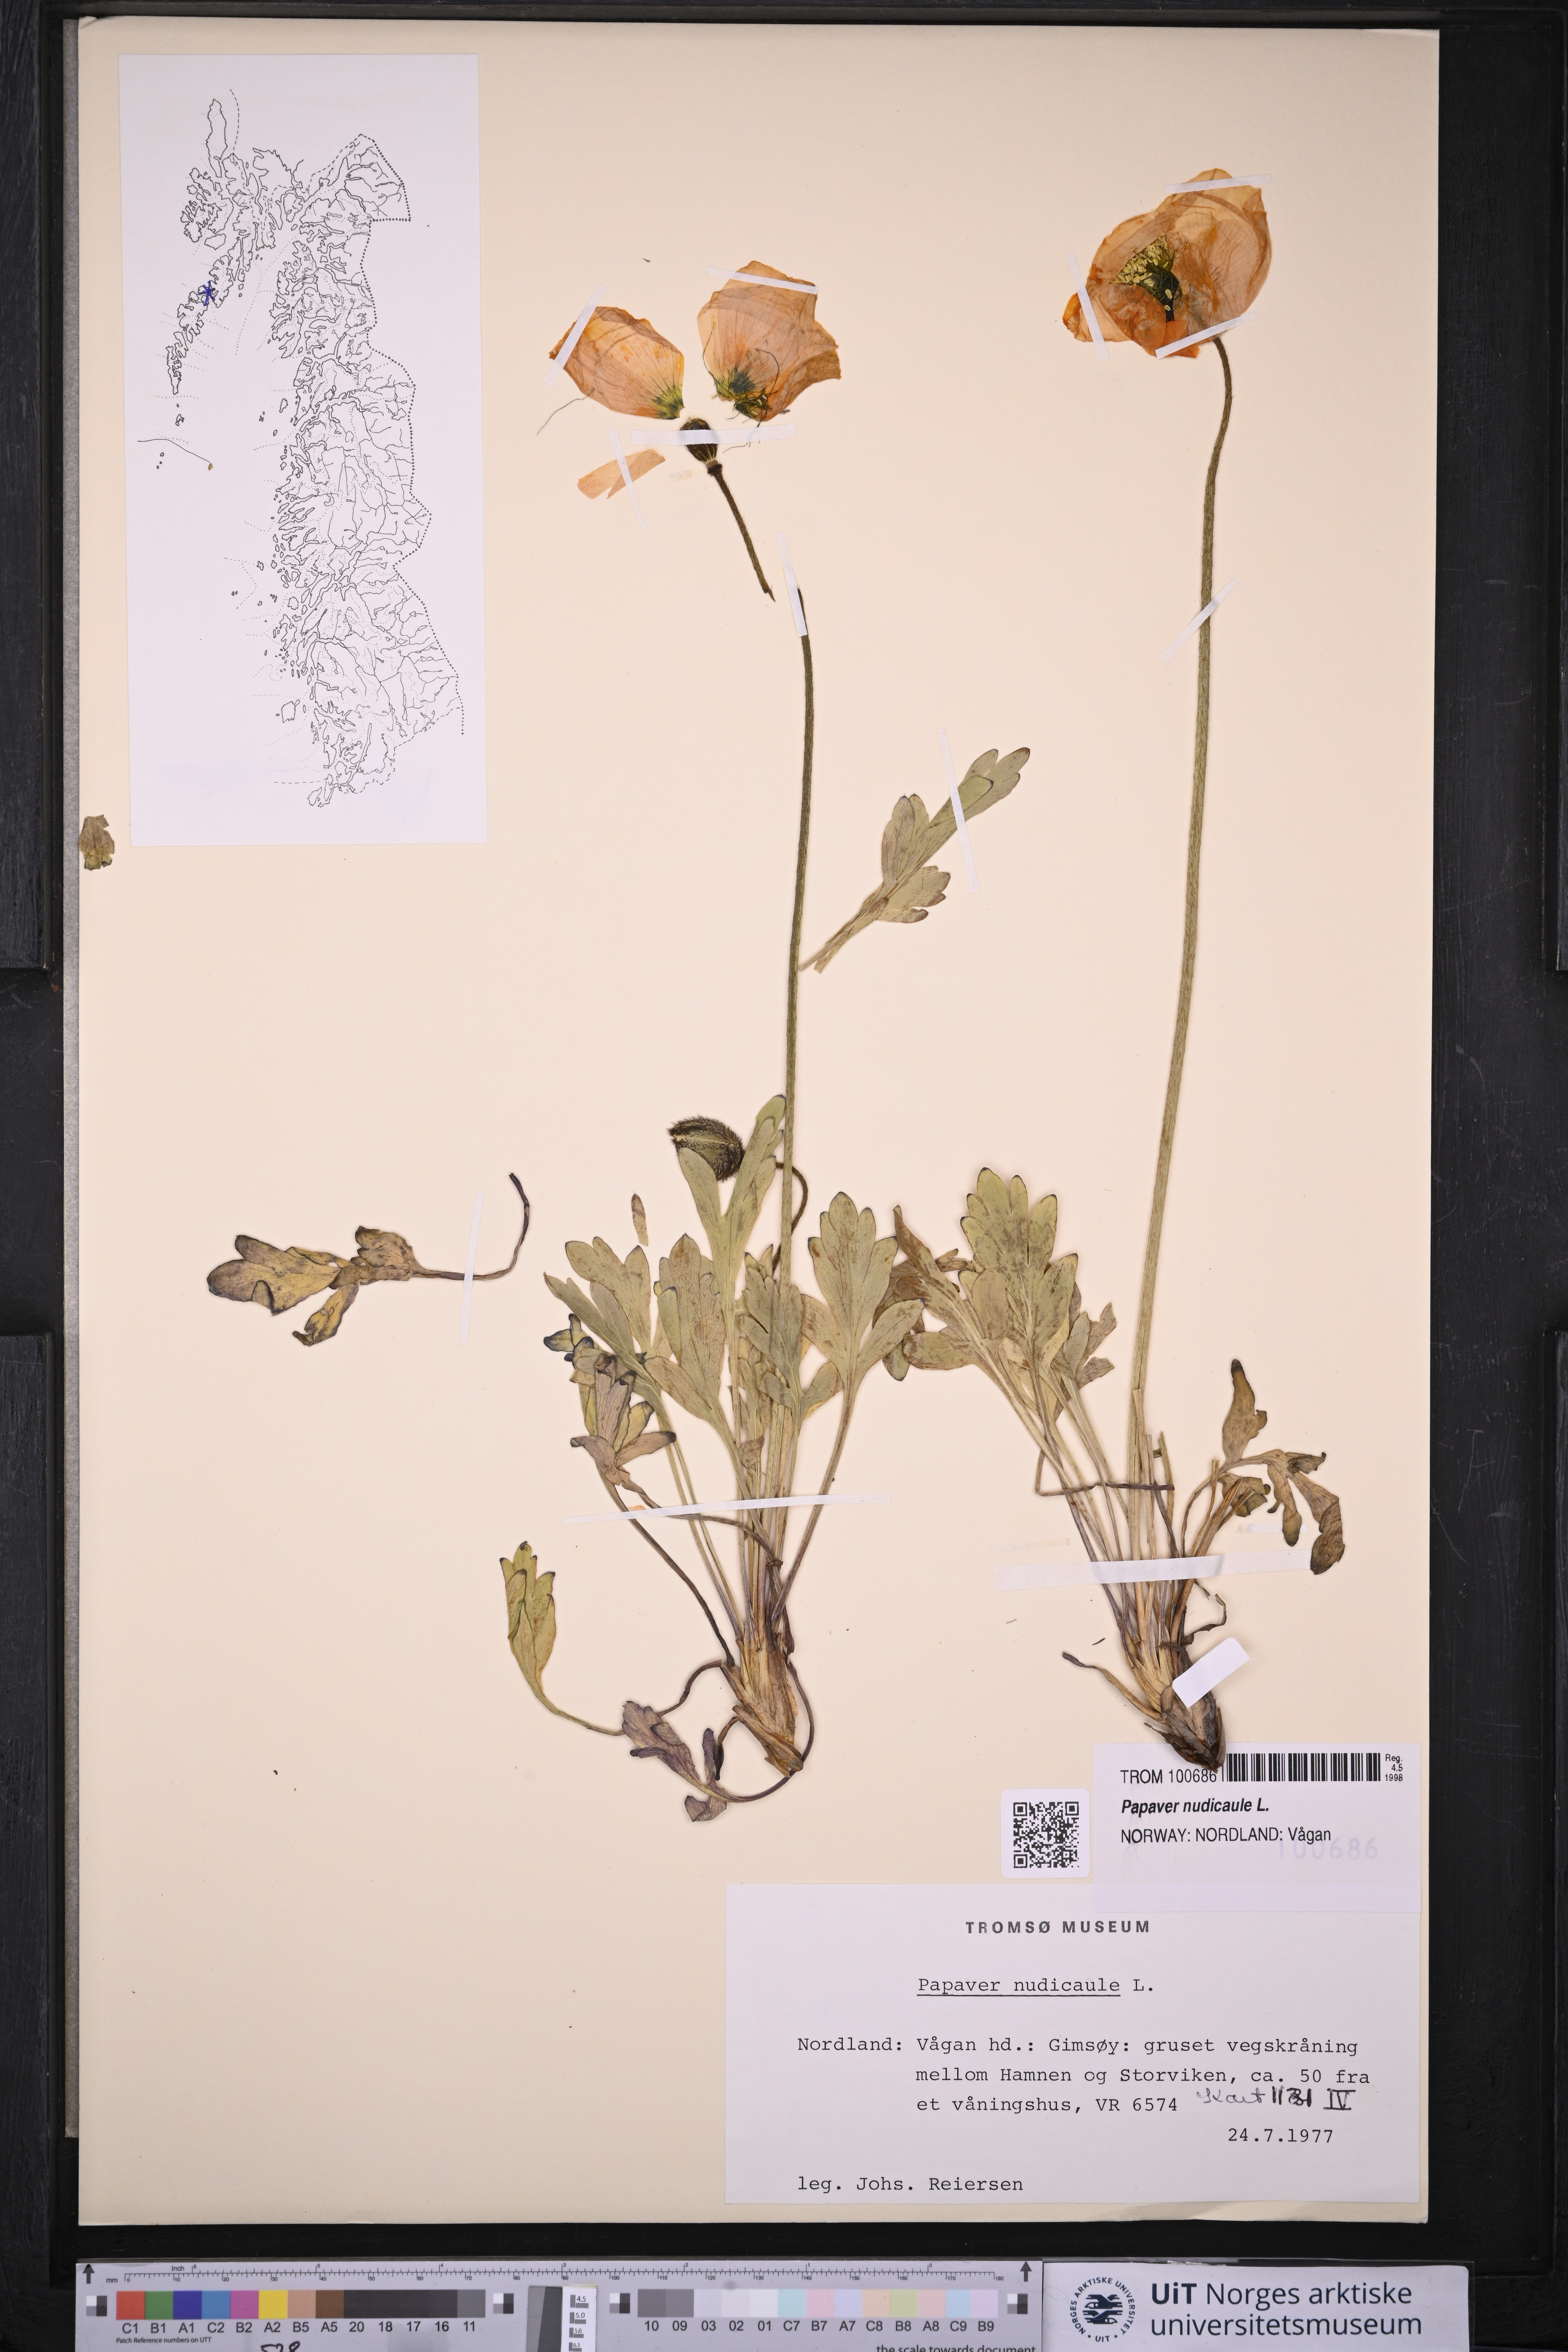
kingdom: Plantae
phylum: Tracheophyta
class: Magnoliopsida
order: Ranunculales
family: Papaveraceae
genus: Papaver
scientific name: Papaver nudicaule
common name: Arctic poppy
